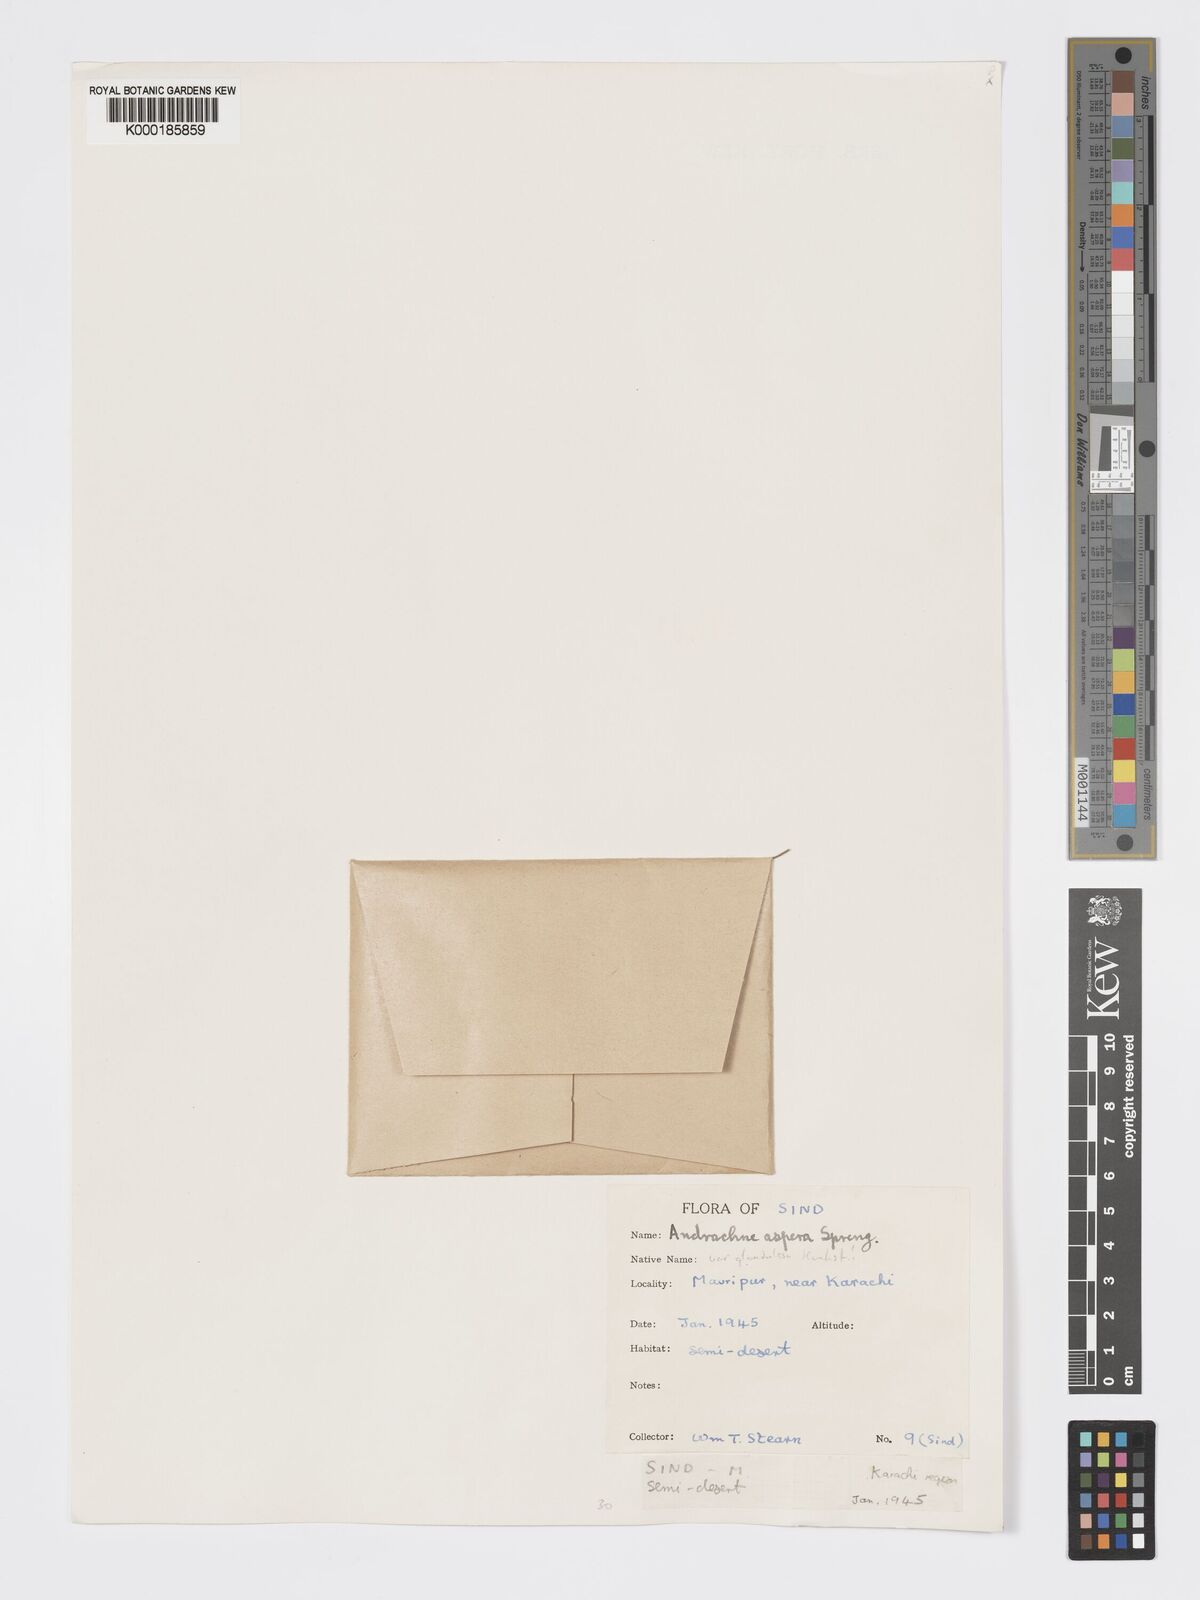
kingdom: Plantae
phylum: Tracheophyta
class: Magnoliopsida
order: Malpighiales
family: Phyllanthaceae
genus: Andrachne
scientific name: Andrachne aspera
